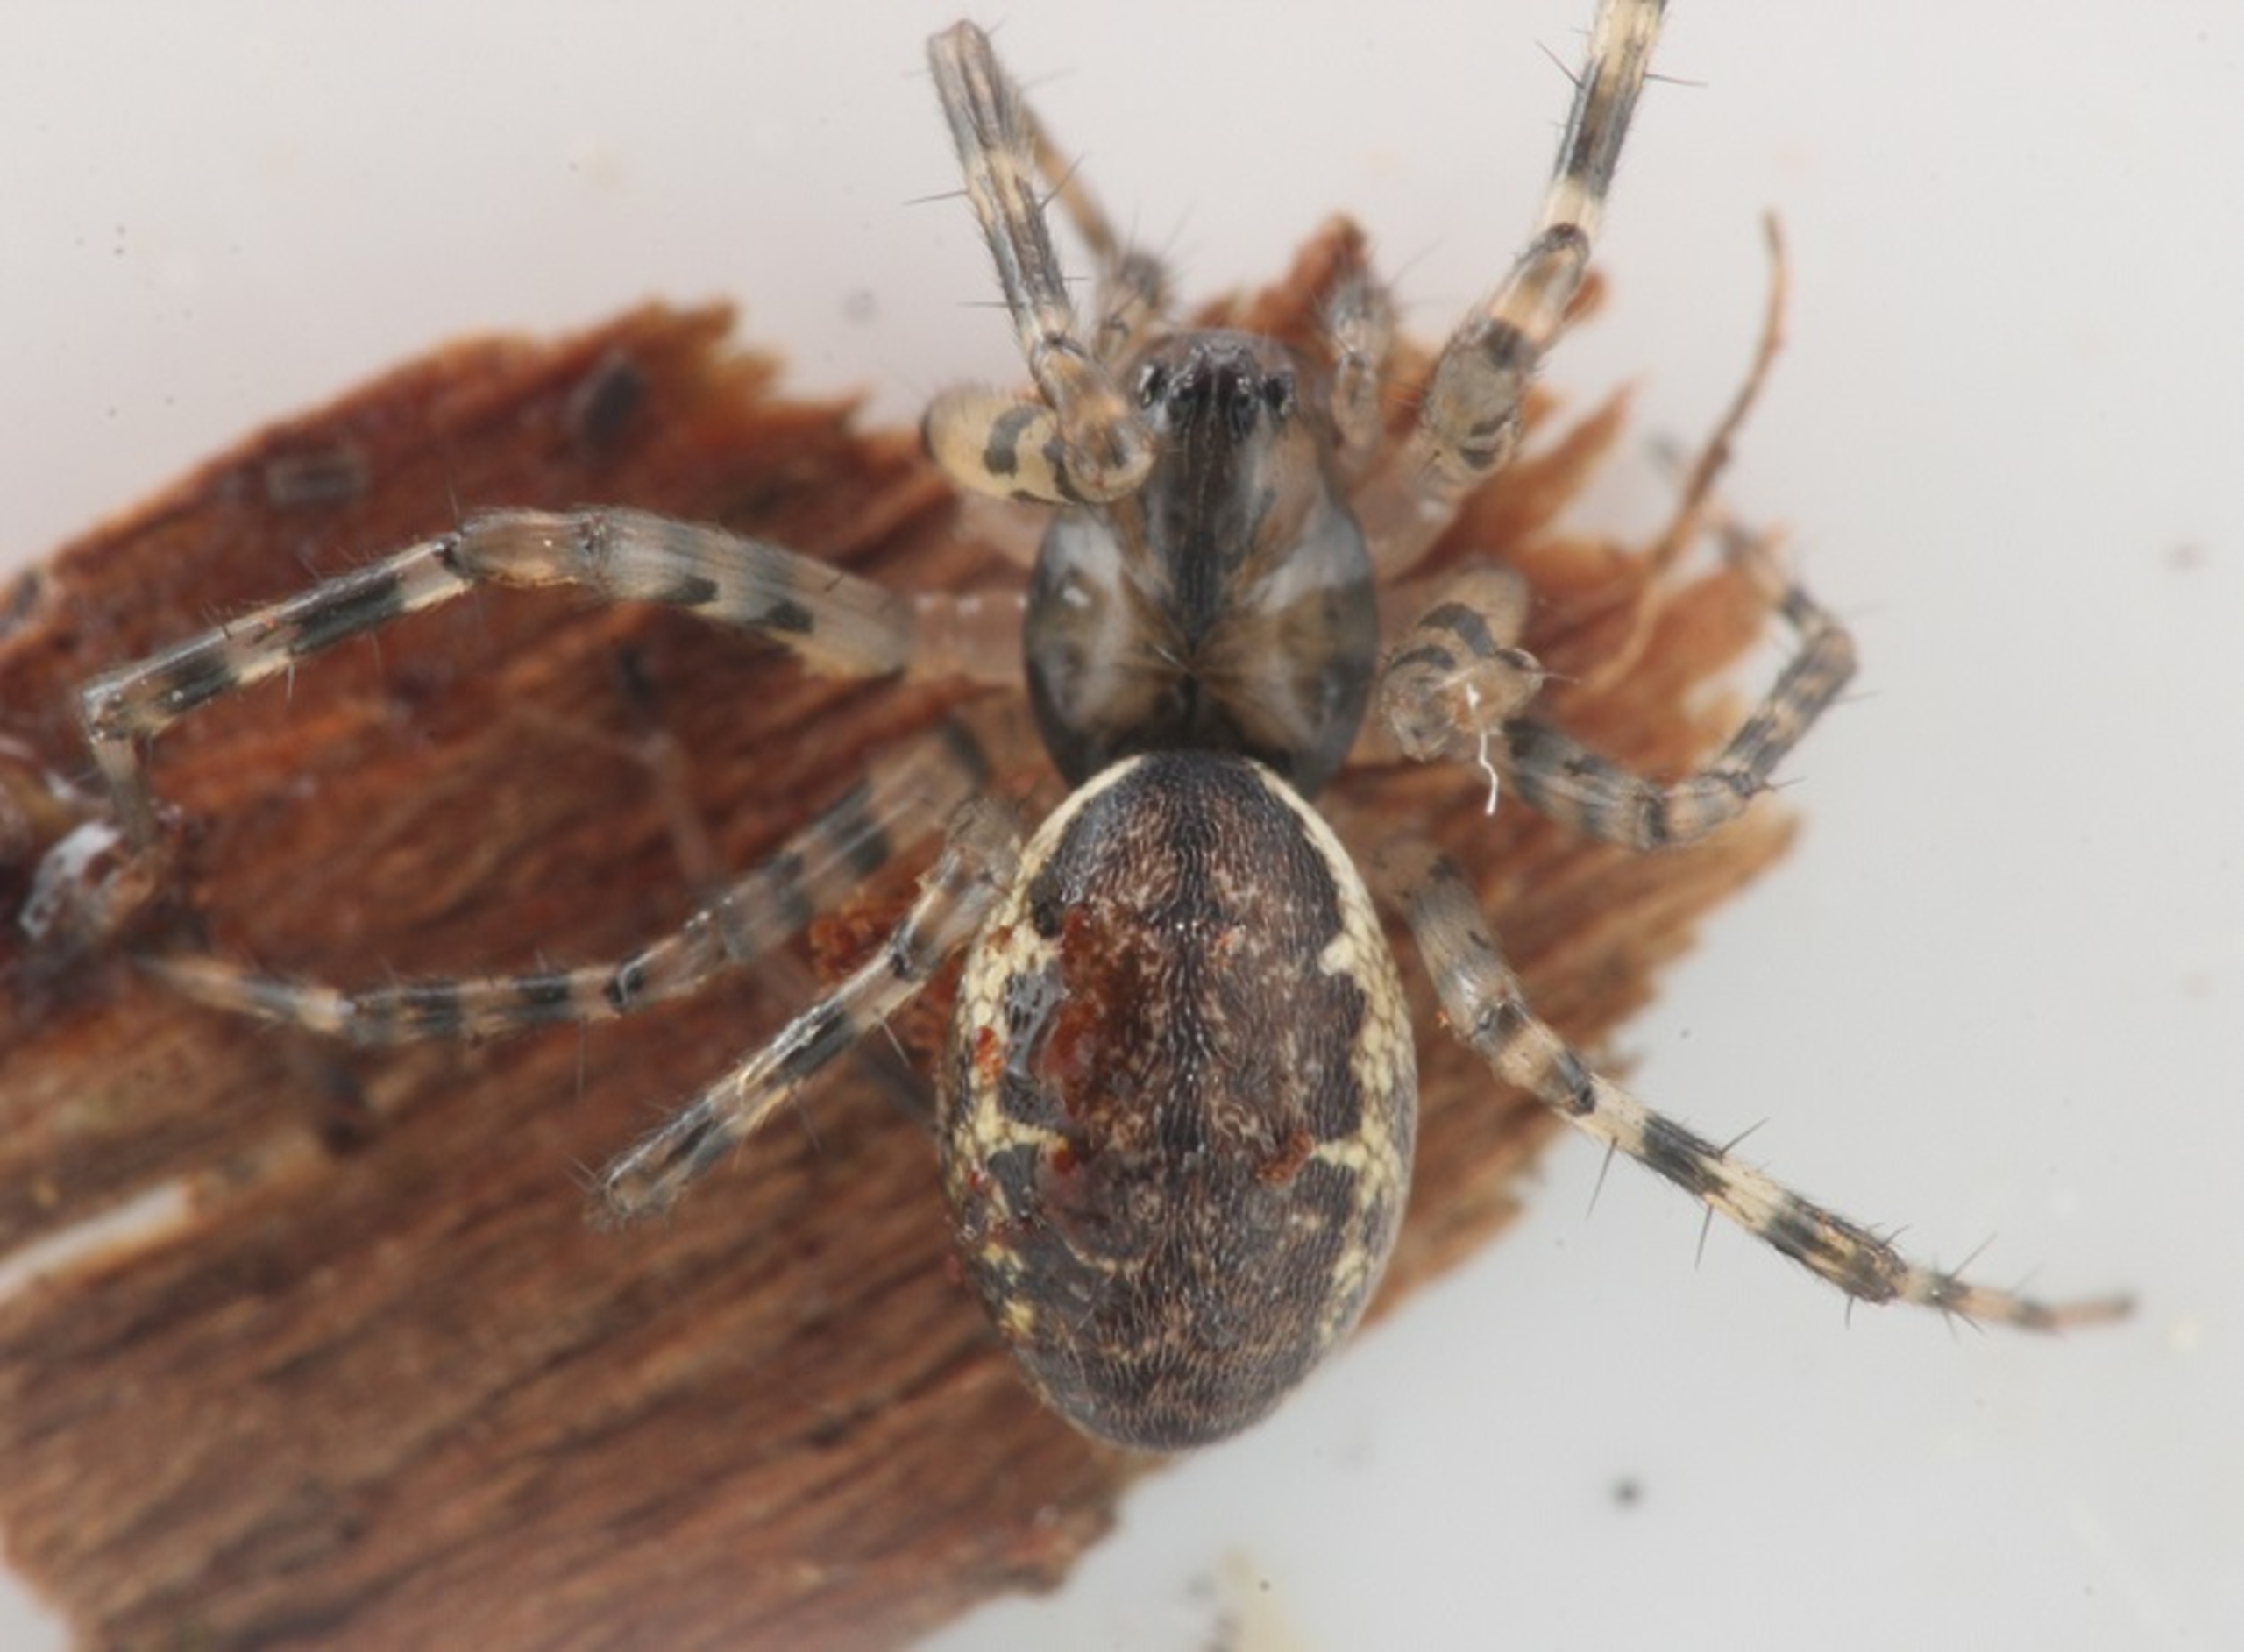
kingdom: Animalia
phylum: Arthropoda
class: Arachnida
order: Araneae
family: Linyphiidae
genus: Neriene
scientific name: Neriene montana
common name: Buskbaldakinspinder
